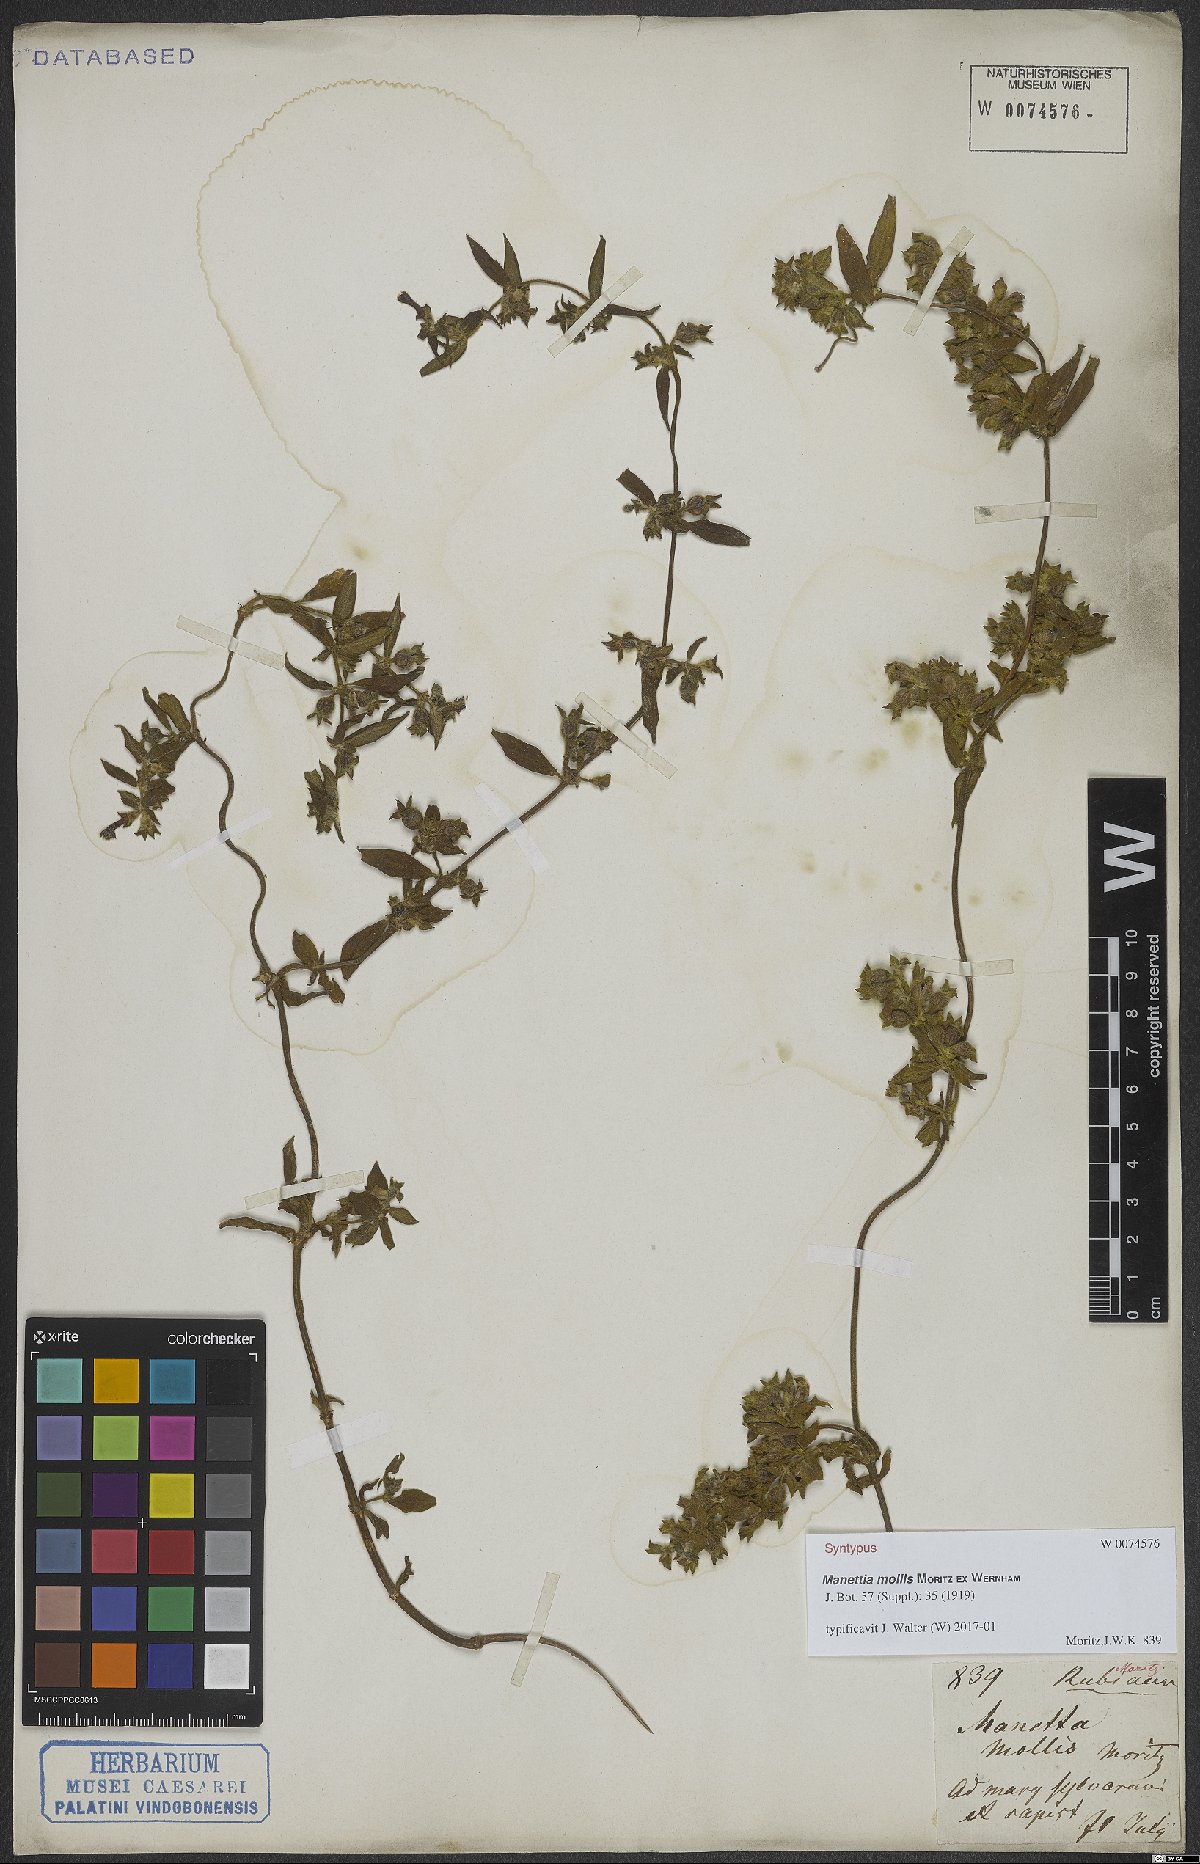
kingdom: Plantae
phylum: Tracheophyta
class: Magnoliopsida
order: Gentianales
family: Rubiaceae
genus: Manettia
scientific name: Manettia mollis
